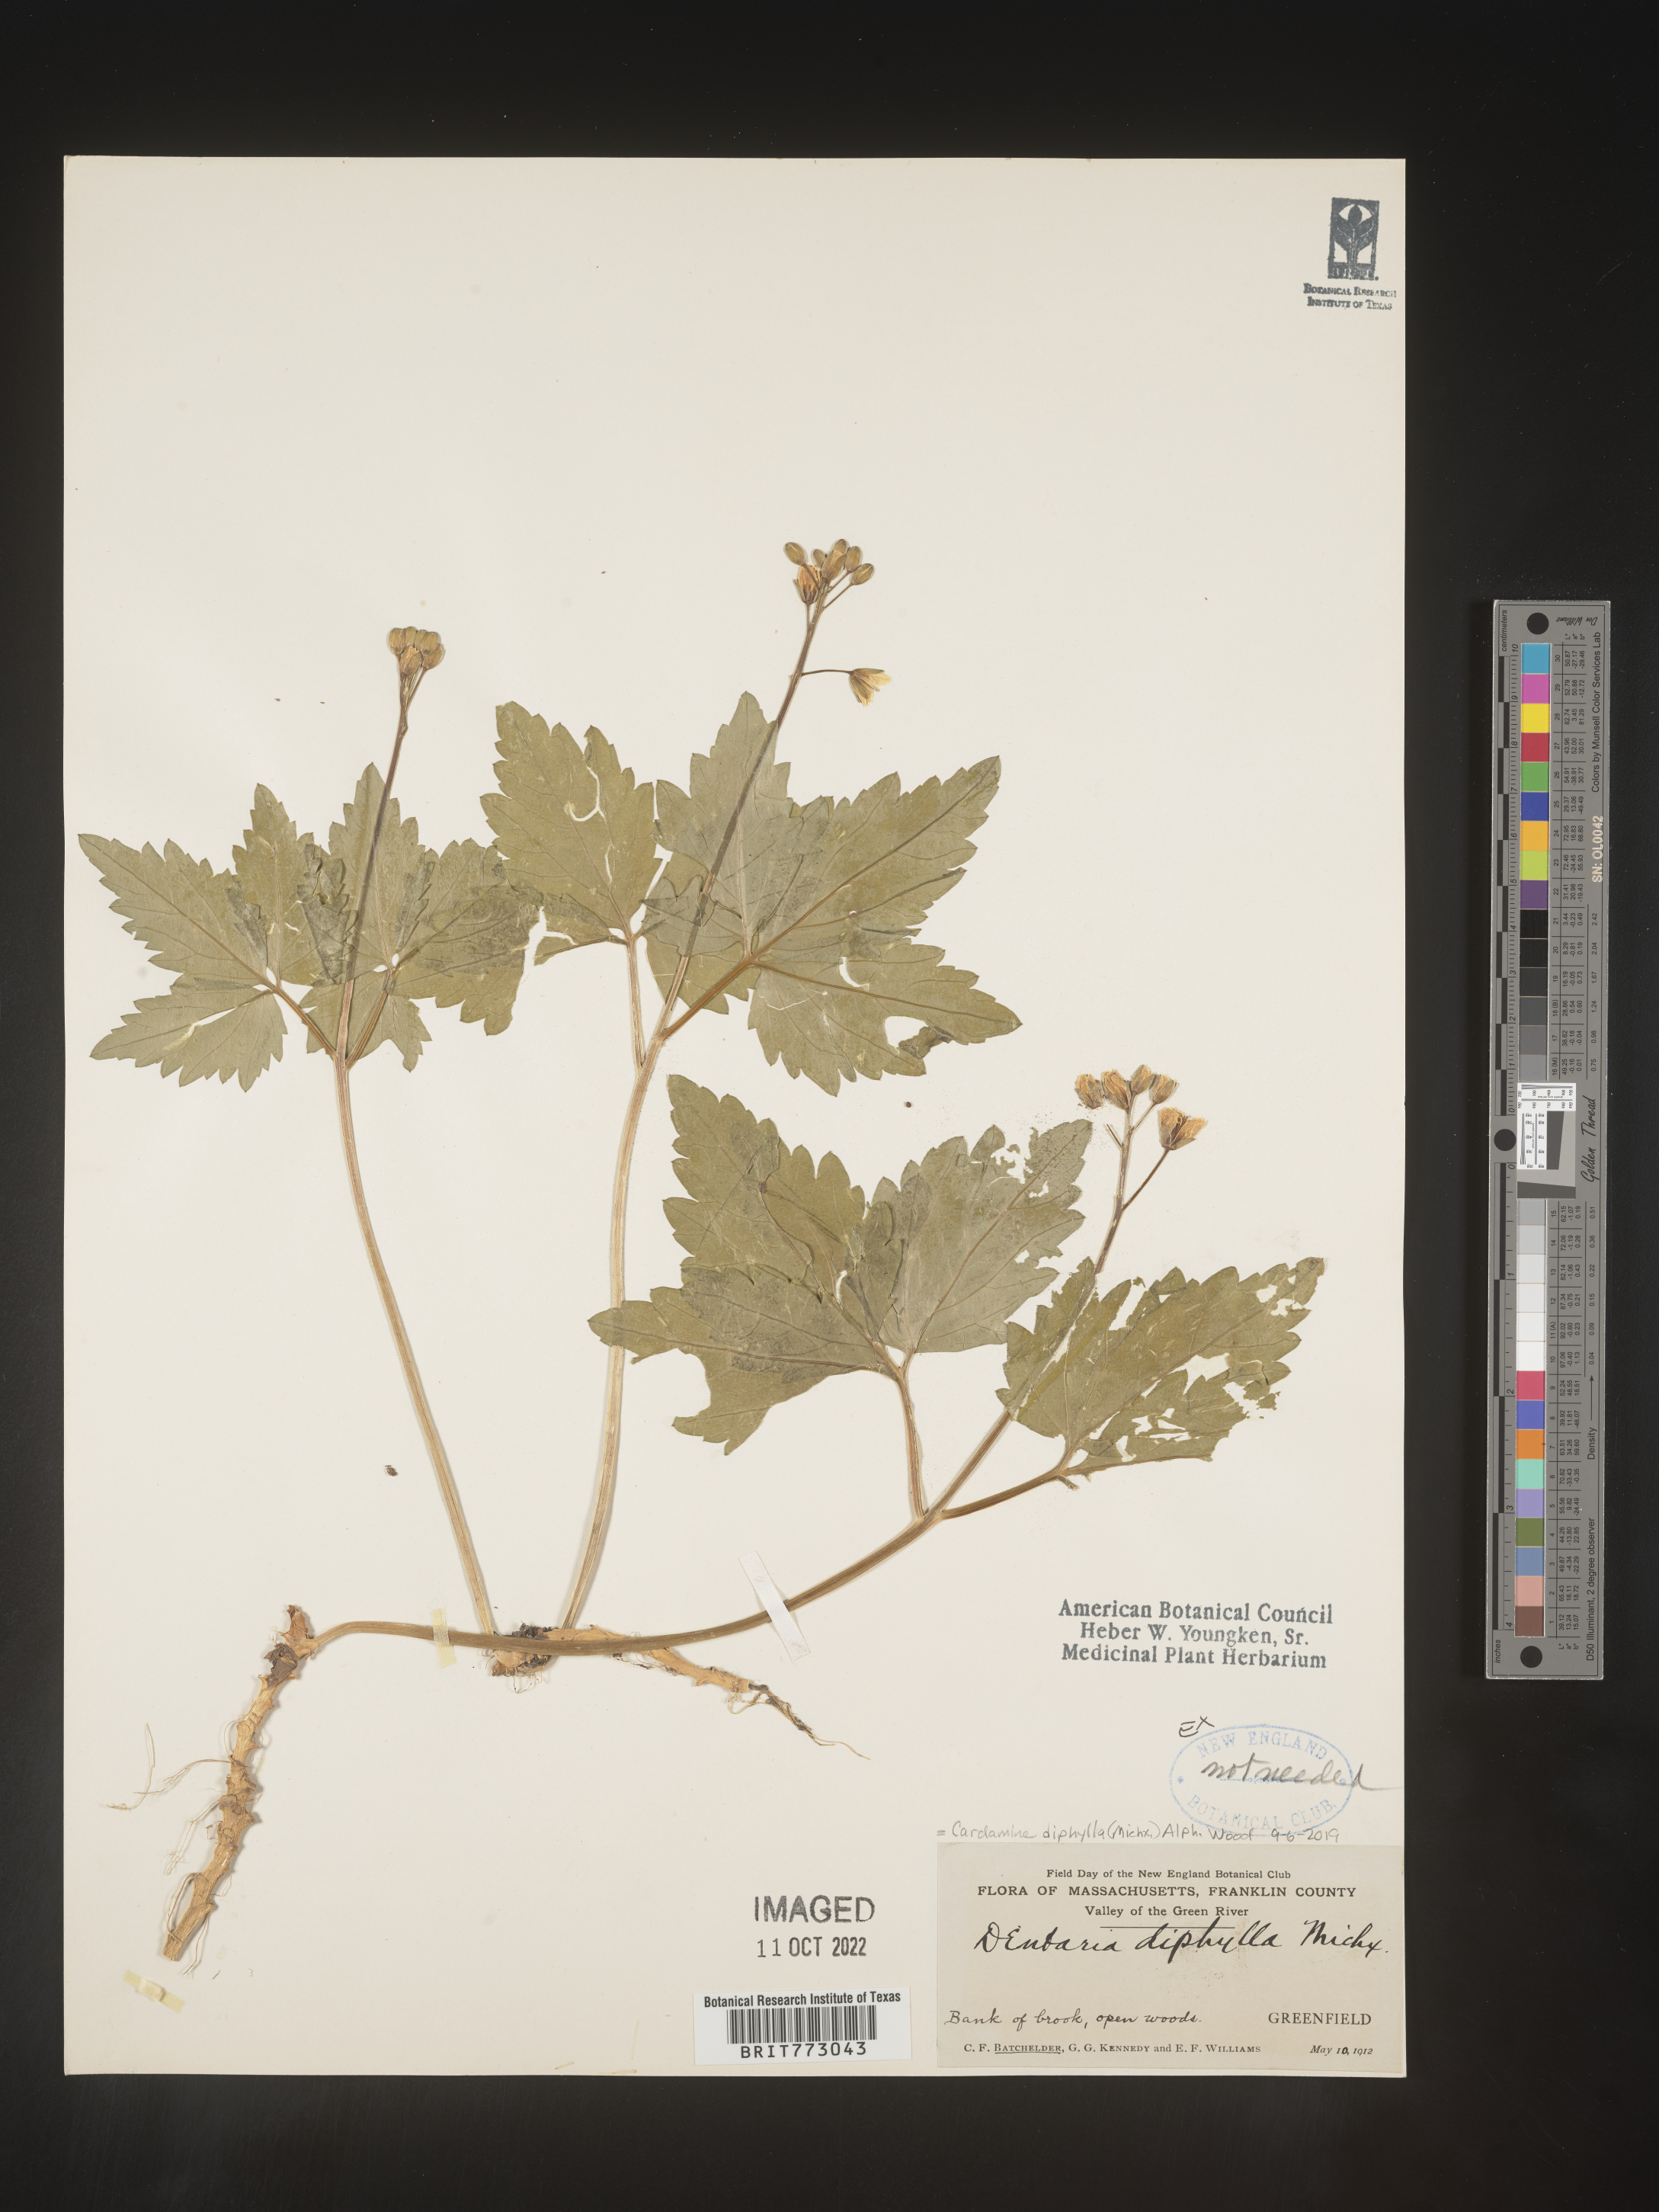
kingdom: Plantae
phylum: Tracheophyta
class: Magnoliopsida
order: Brassicales
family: Brassicaceae
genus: Cardamine
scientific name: Cardamine diphylla
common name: Broad-leaved toothwort
